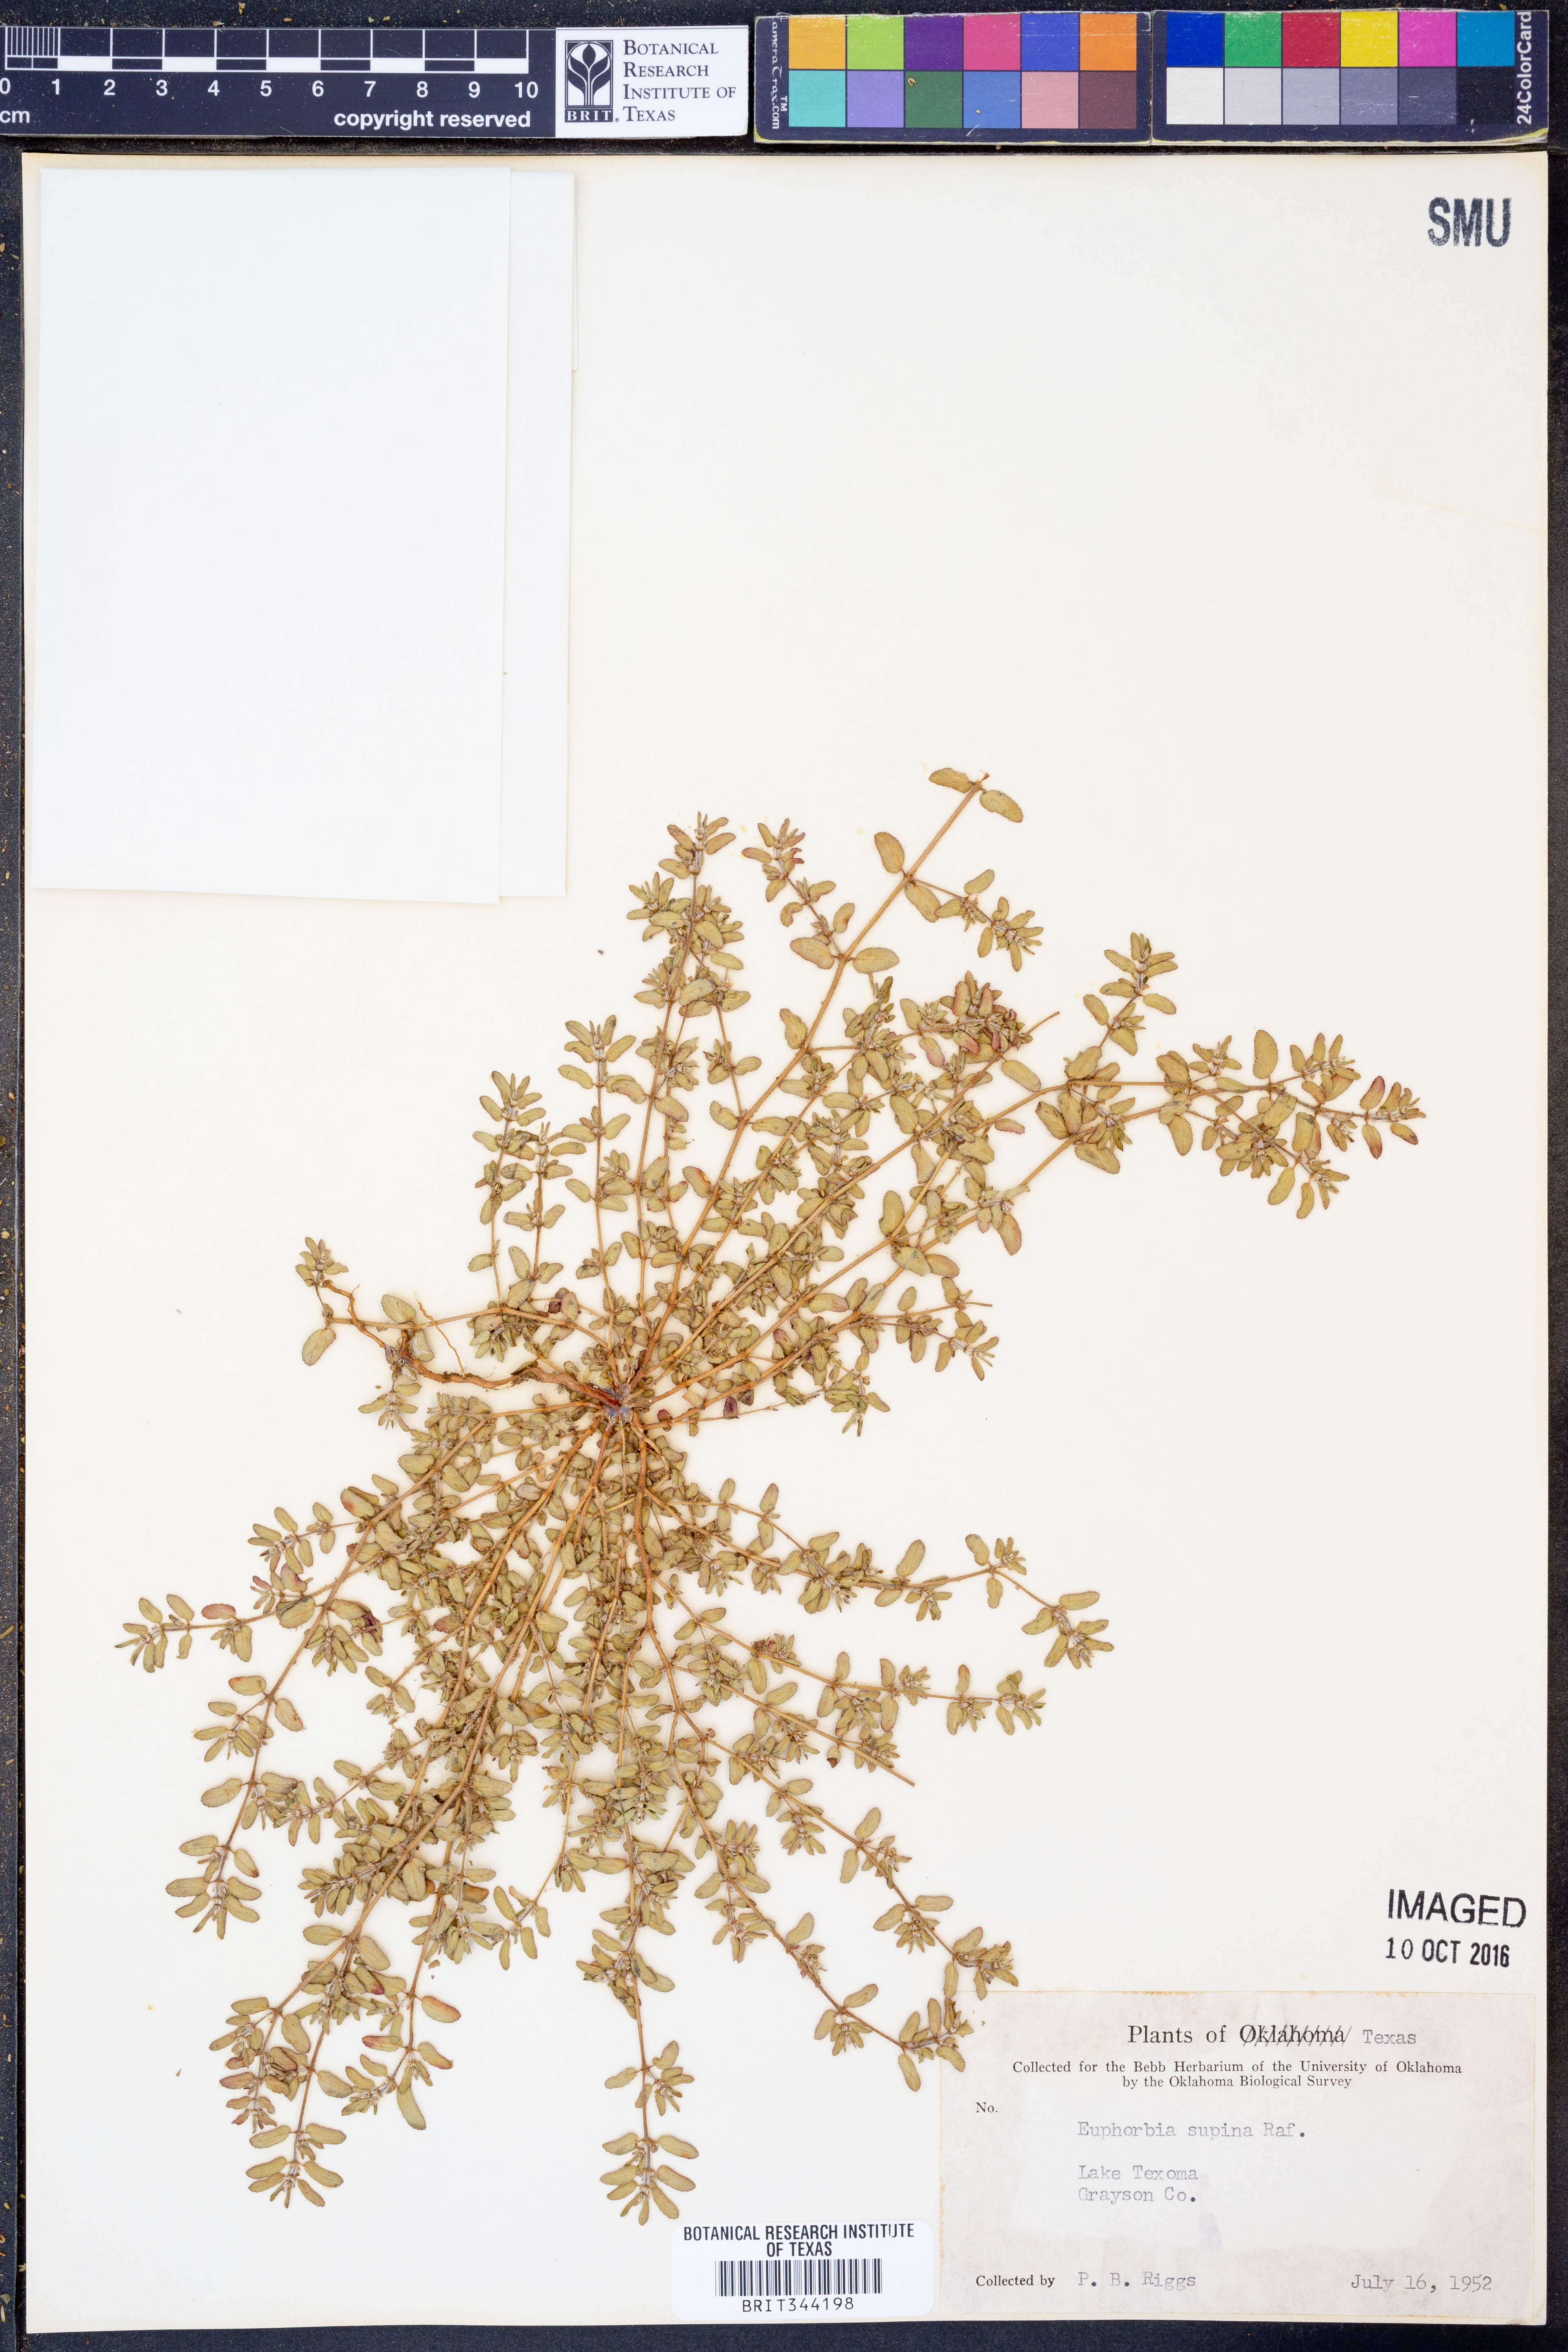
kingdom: Plantae
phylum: Tracheophyta
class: Magnoliopsida
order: Malpighiales
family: Euphorbiaceae
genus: Euphorbia
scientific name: Euphorbia maculata
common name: Spotted spurge
